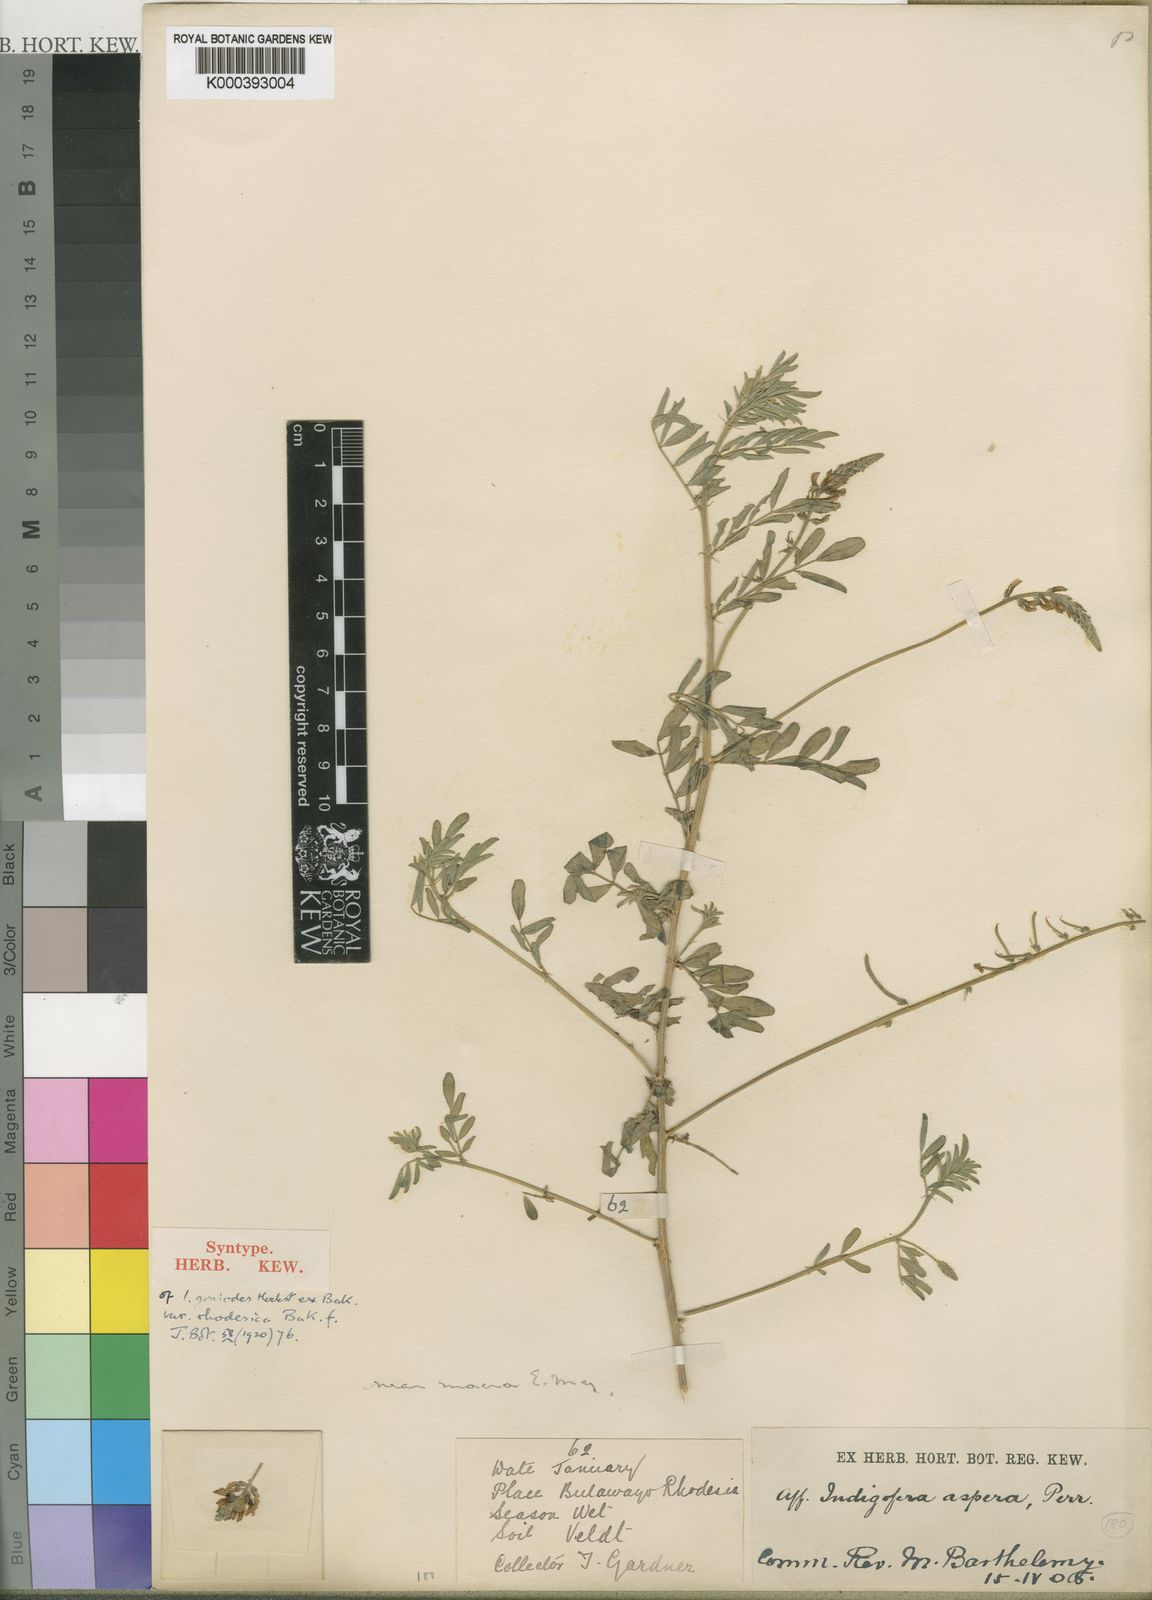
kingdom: Plantae
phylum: Tracheophyta
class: Magnoliopsida
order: Fabales
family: Fabaceae
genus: Indigastrum
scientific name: Indigastrum costatum
